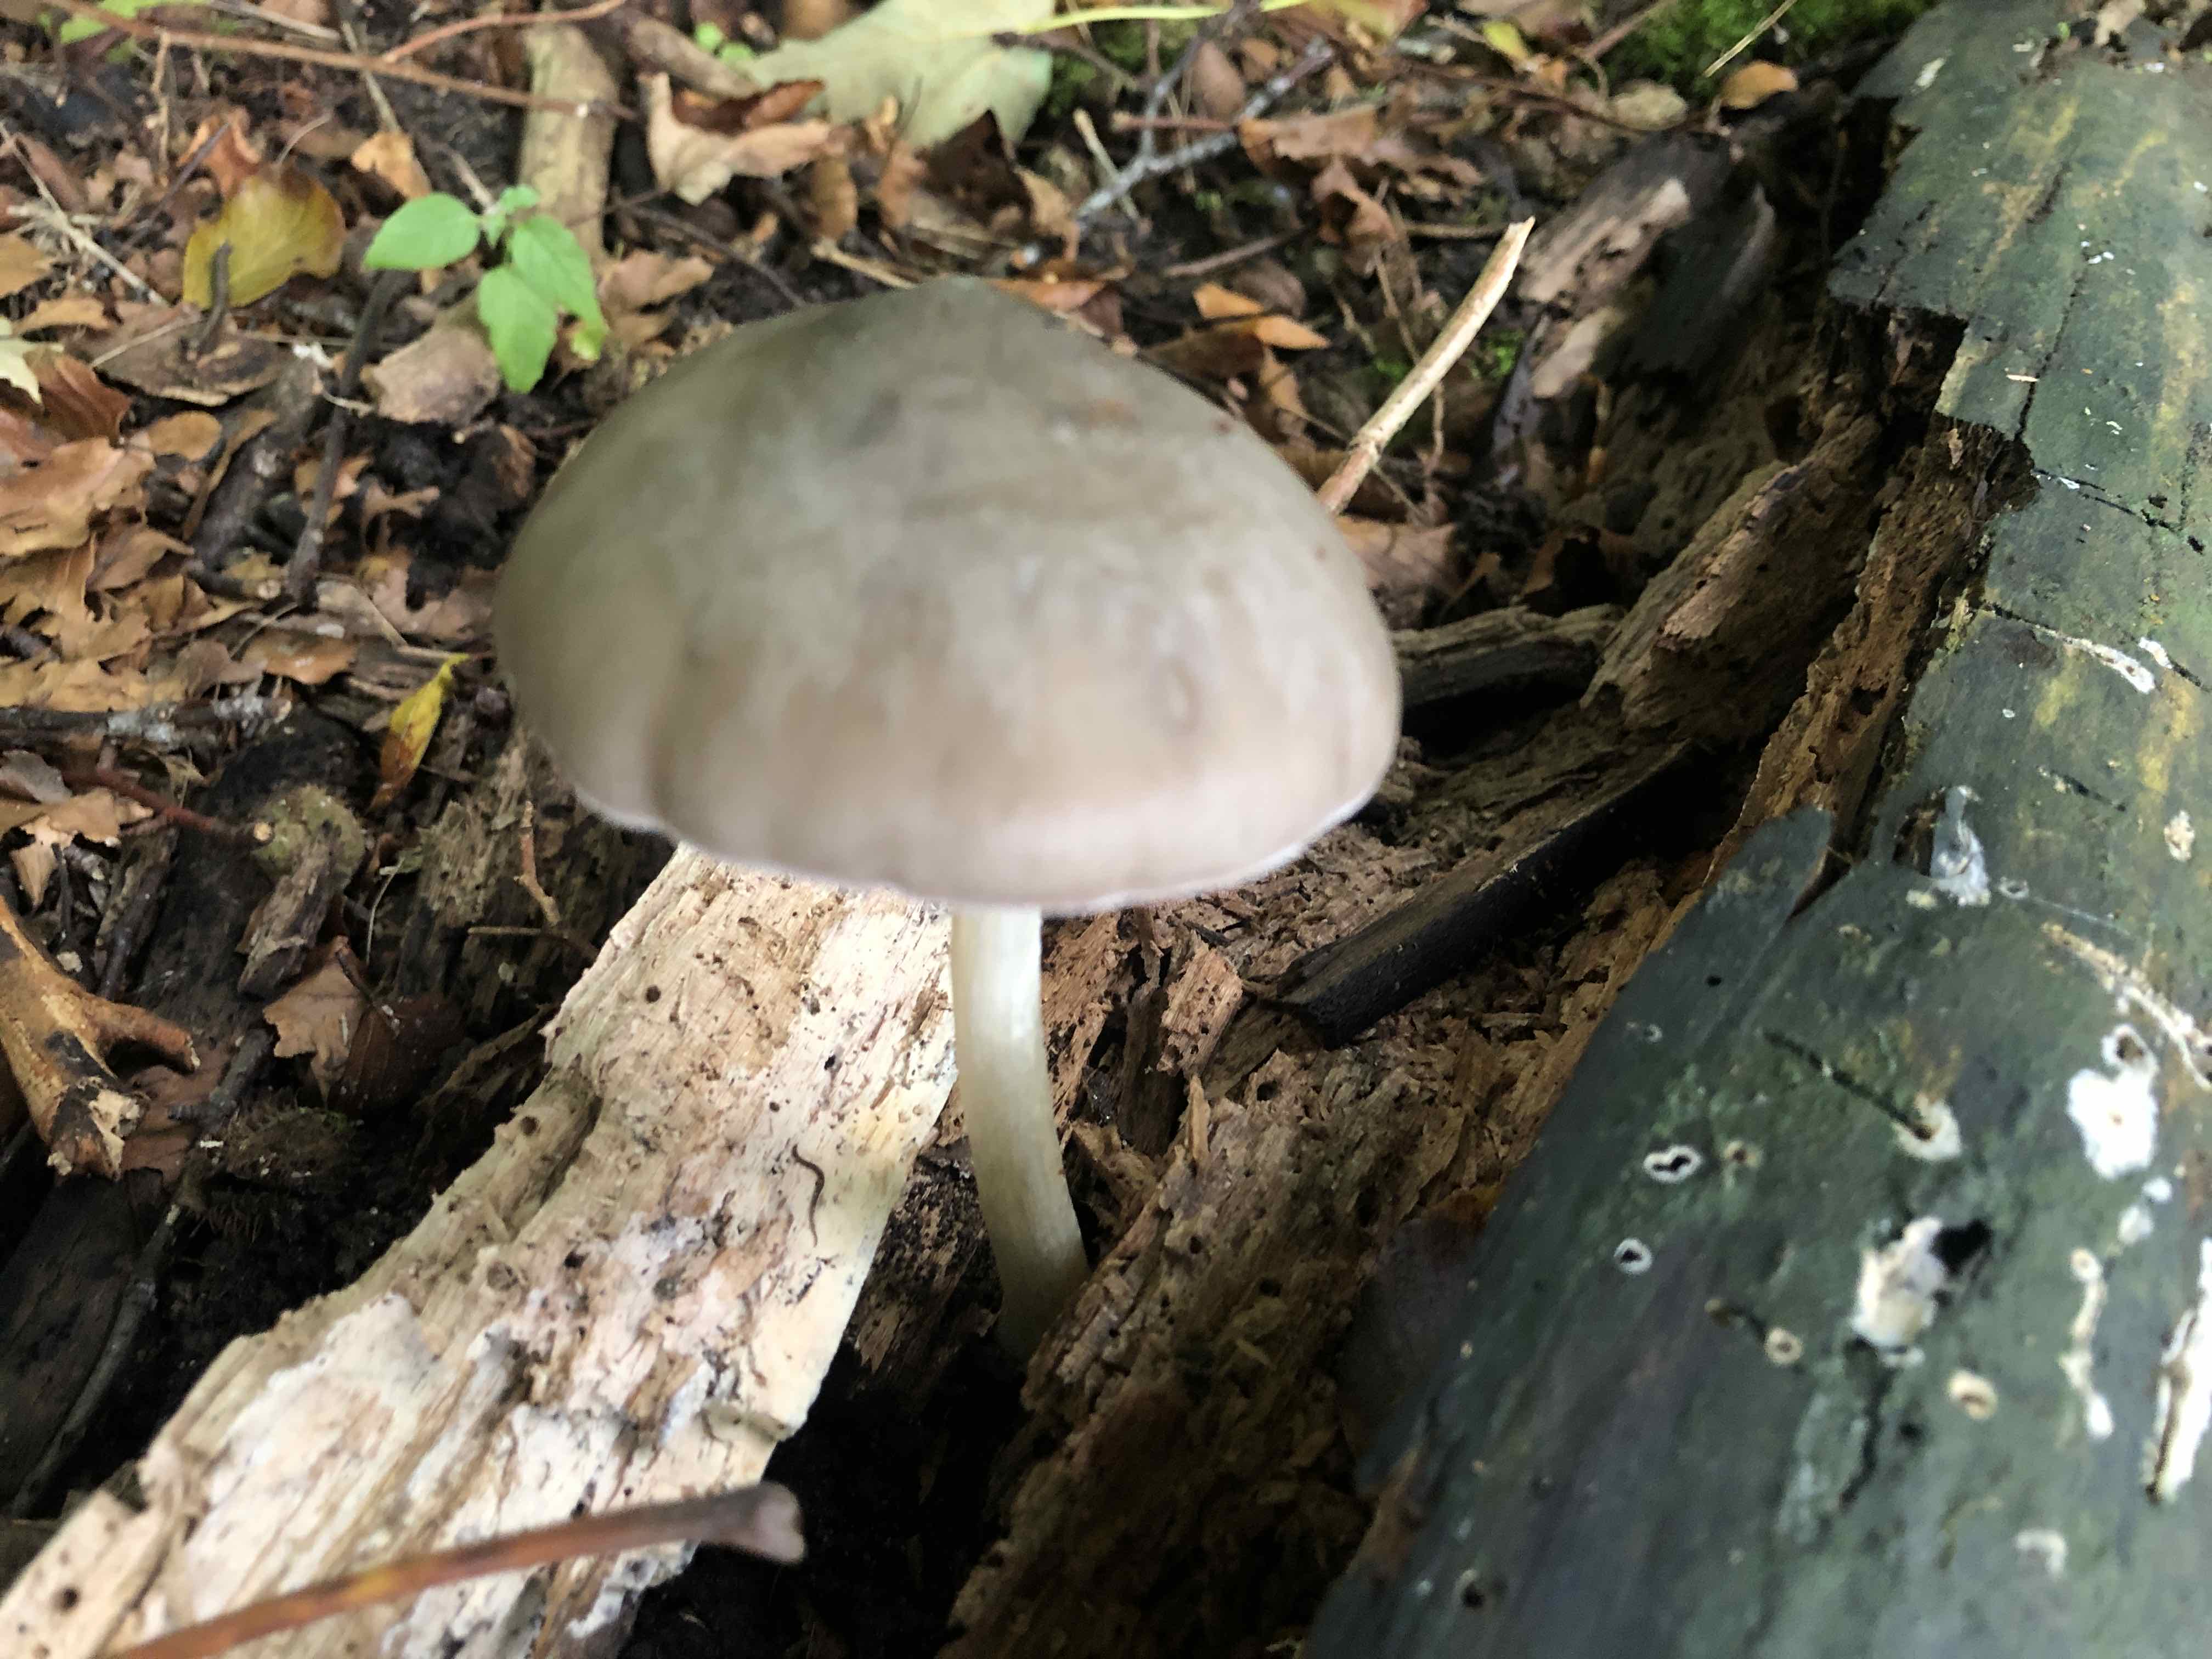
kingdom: Fungi
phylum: Basidiomycota
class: Agaricomycetes
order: Agaricales
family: Pluteaceae
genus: Pluteus
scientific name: Pluteus cervinus
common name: sodfarvet skærmhat
